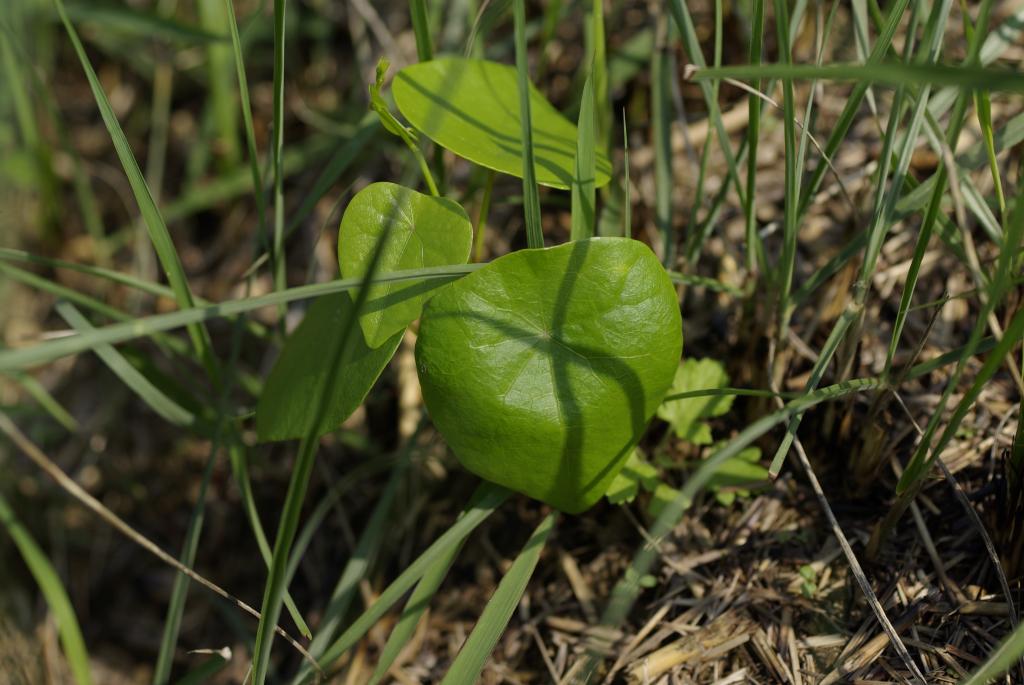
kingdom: Plantae
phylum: Tracheophyta
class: Magnoliopsida
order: Ranunculales
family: Menispermaceae
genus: Stephania
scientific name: Stephania japonica
